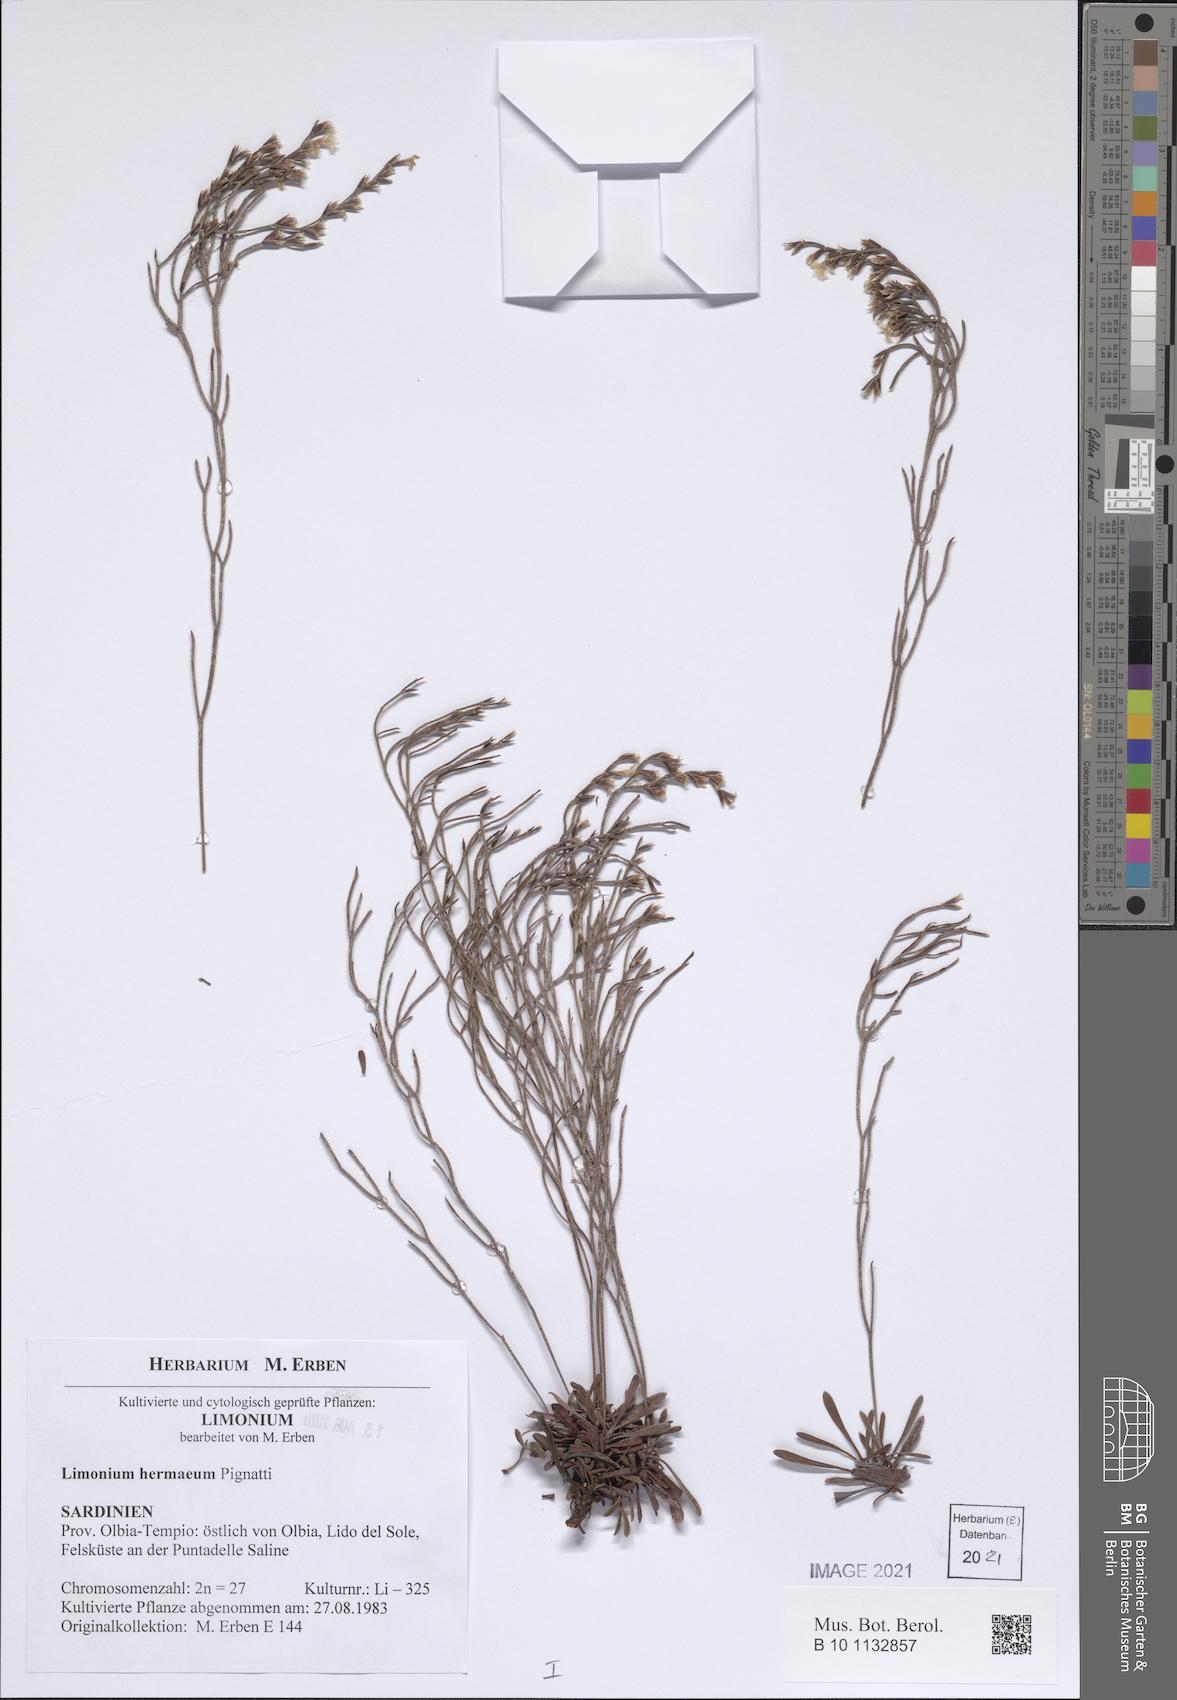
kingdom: Plantae
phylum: Tracheophyta
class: Magnoliopsida
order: Caryophyllales
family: Plumbaginaceae
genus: Limonium
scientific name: Limonium hermaeum
